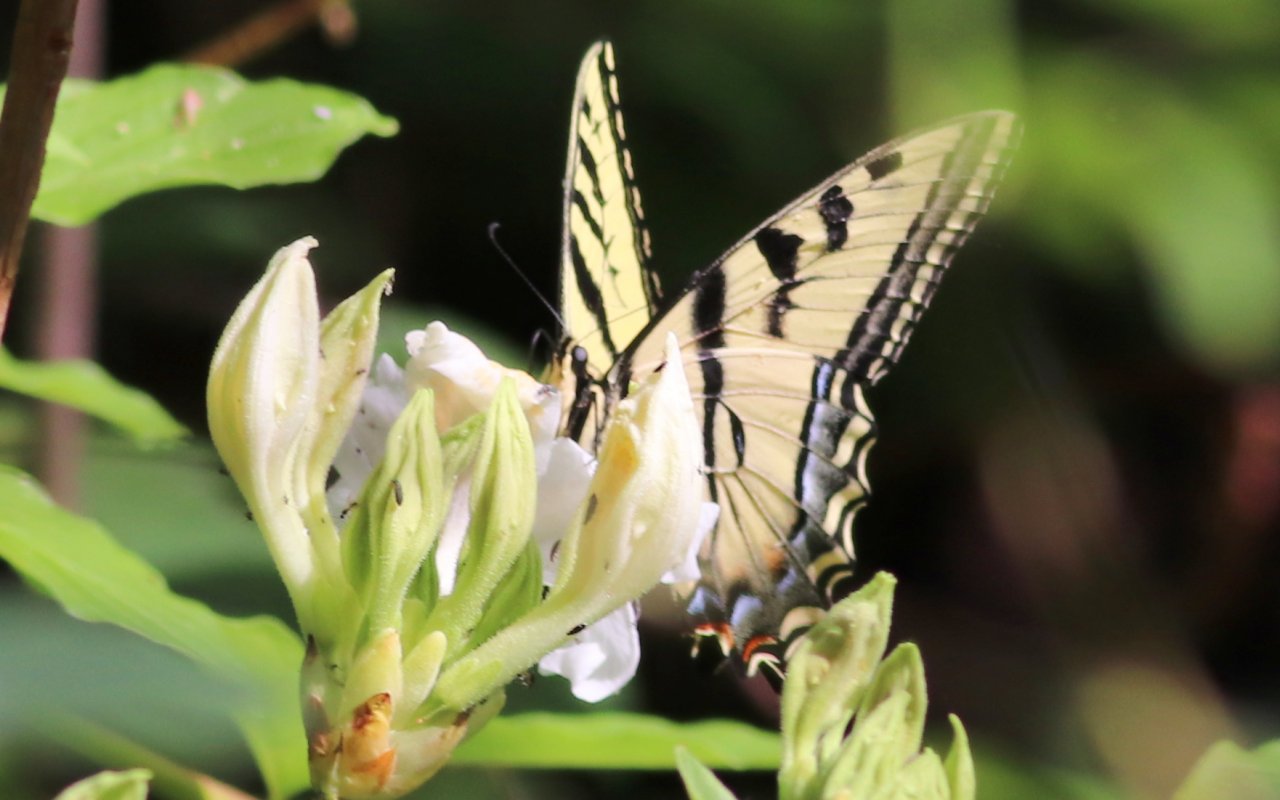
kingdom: Animalia
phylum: Arthropoda
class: Insecta
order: Lepidoptera
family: Papilionidae
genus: Pterourus
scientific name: Pterourus rutulus
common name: Western Tiger Swallowtail
